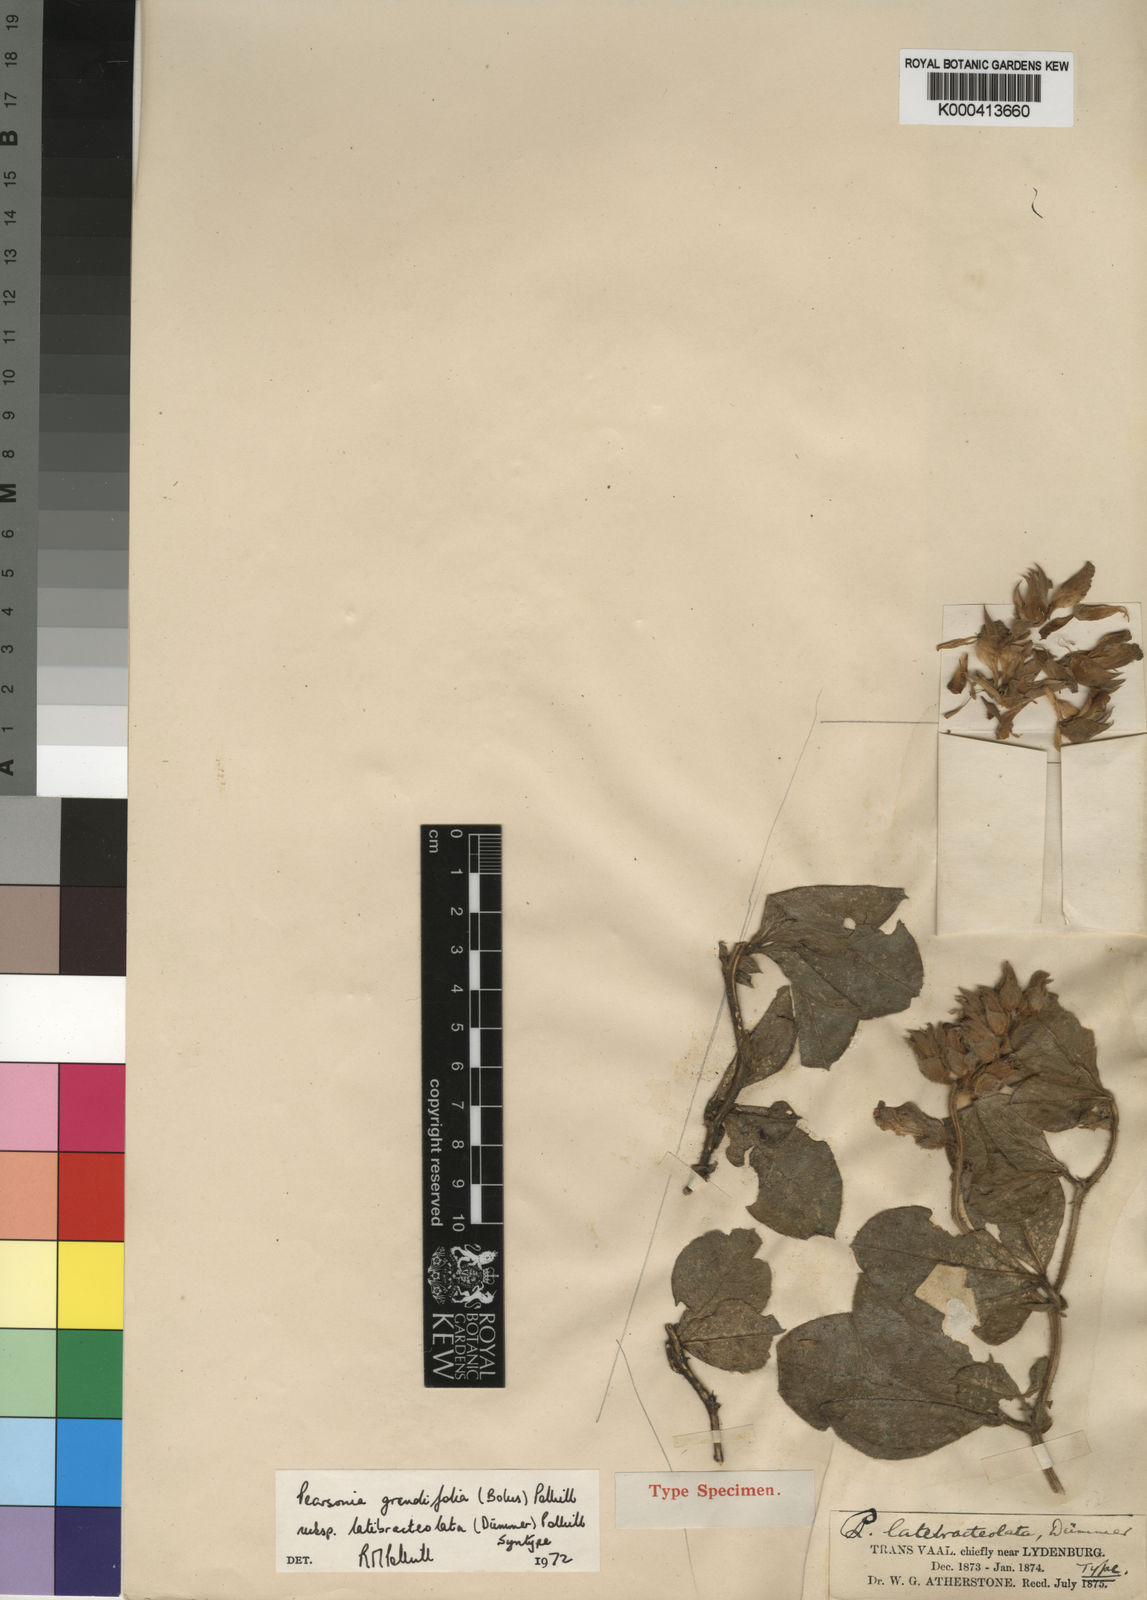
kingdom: Plantae
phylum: Tracheophyta
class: Magnoliopsida
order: Fabales
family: Fabaceae
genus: Pearsonia
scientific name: Pearsonia grandifolia
